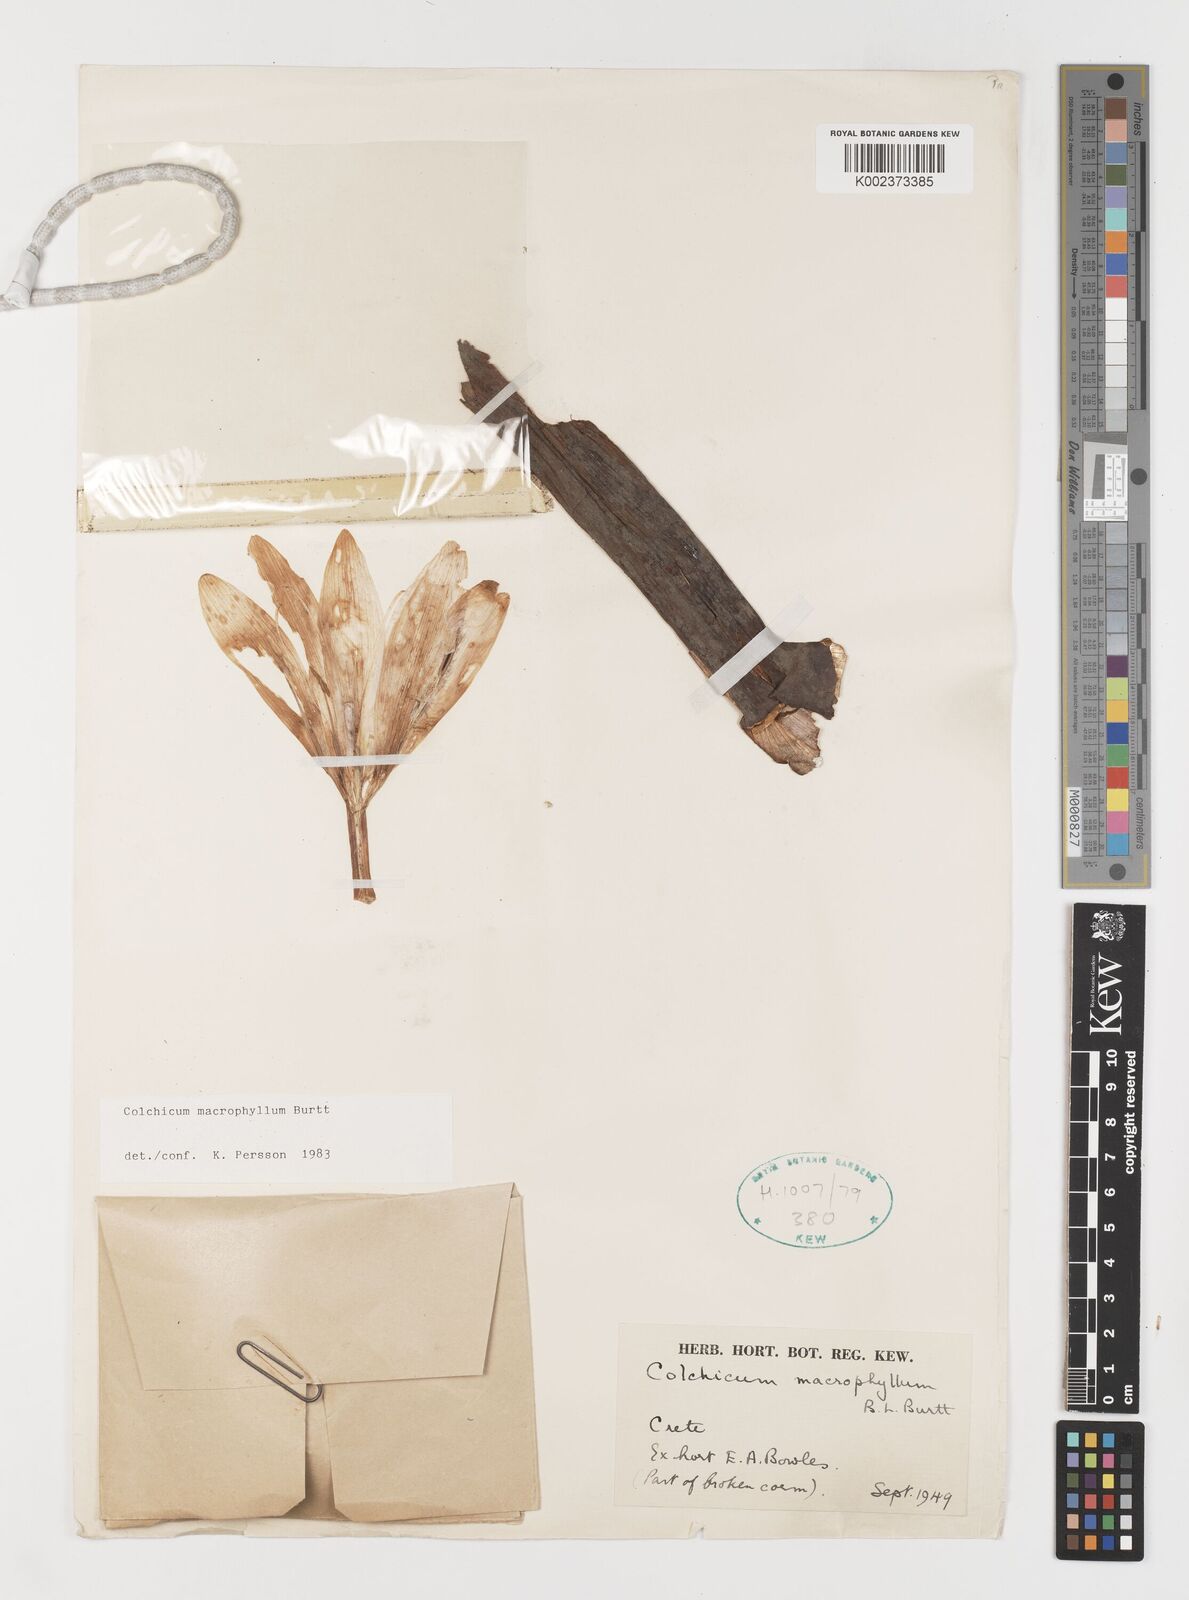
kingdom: Plantae
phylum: Tracheophyta
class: Liliopsida
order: Liliales
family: Colchicaceae
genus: Colchicum
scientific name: Colchicum macrophyllum
